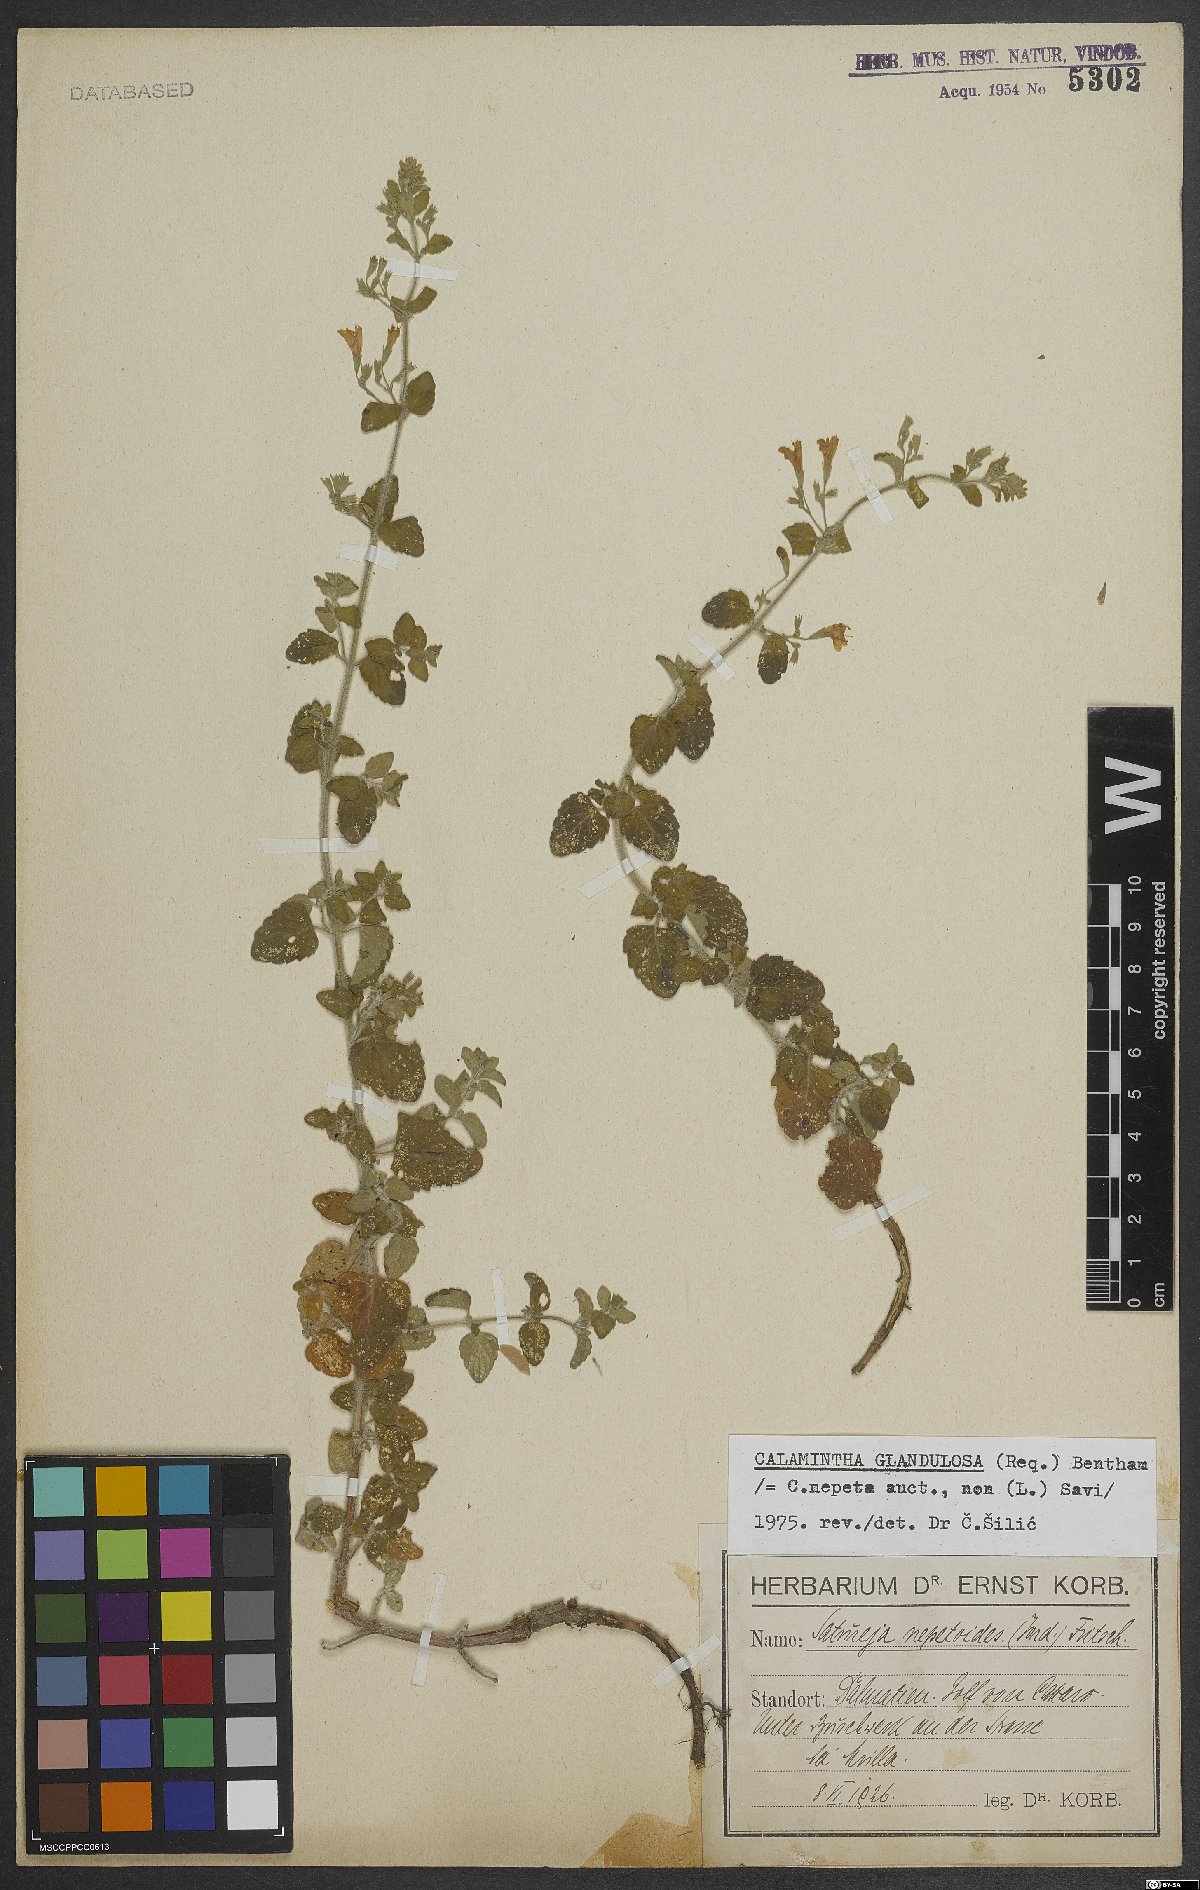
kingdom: Plantae
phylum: Tracheophyta
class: Magnoliopsida
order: Lamiales
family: Lamiaceae
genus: Clinopodium
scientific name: Clinopodium nepeta
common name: Lesser calamint
